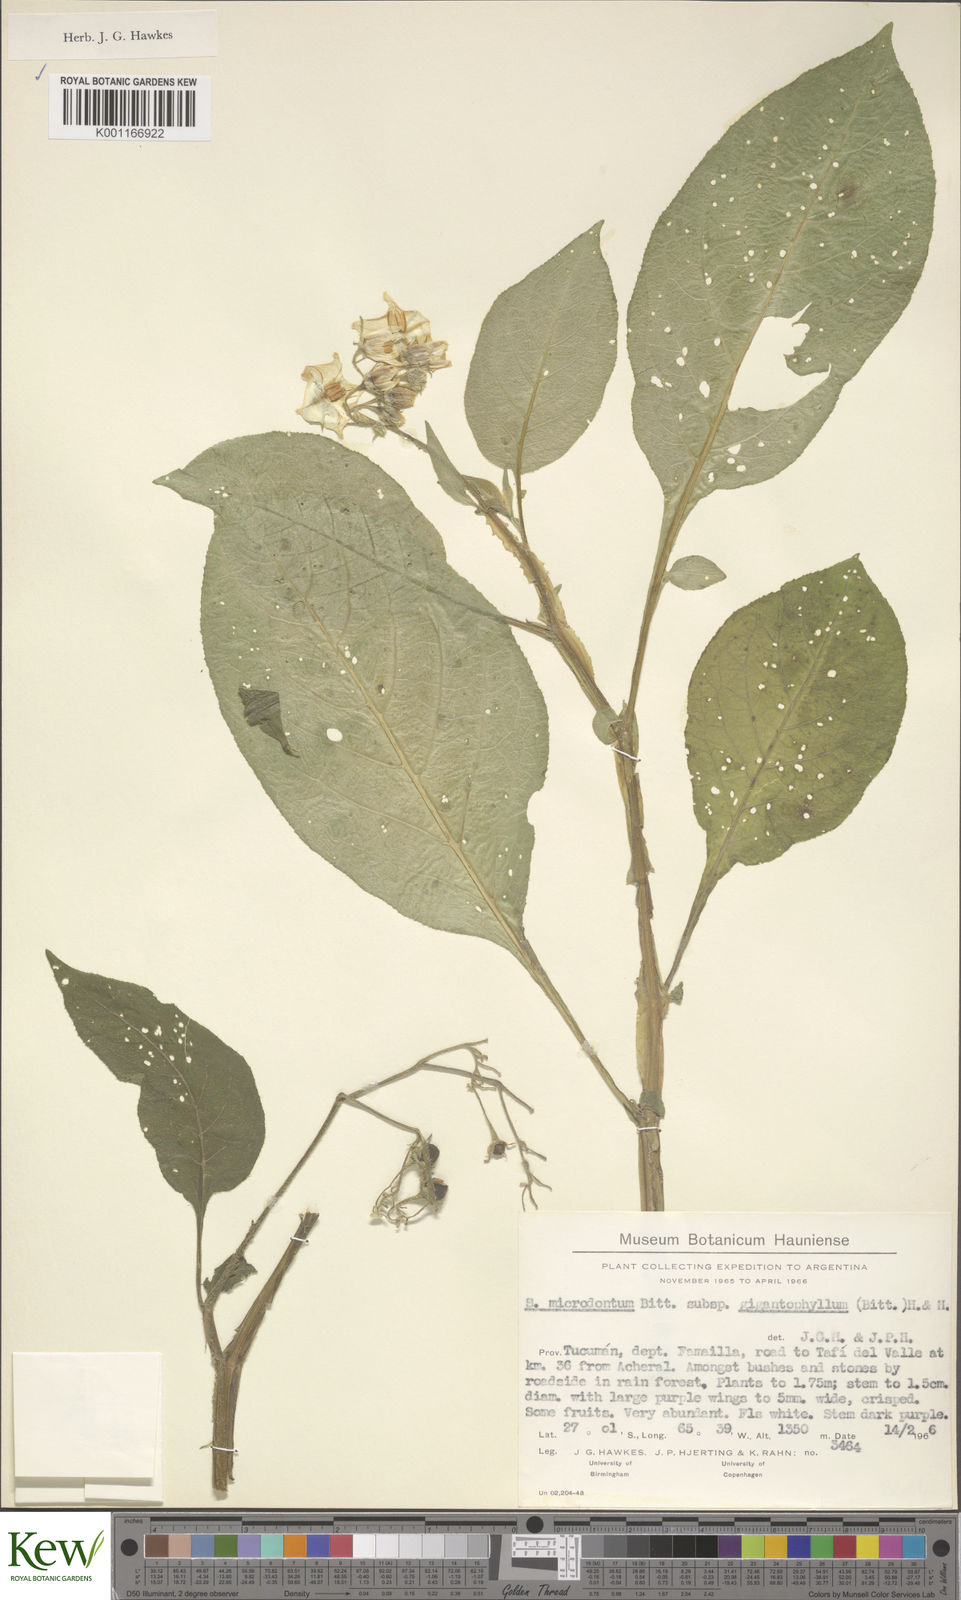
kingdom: Plantae
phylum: Tracheophyta
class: Magnoliopsida
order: Solanales
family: Solanaceae
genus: Solanum
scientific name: Solanum microdontum
